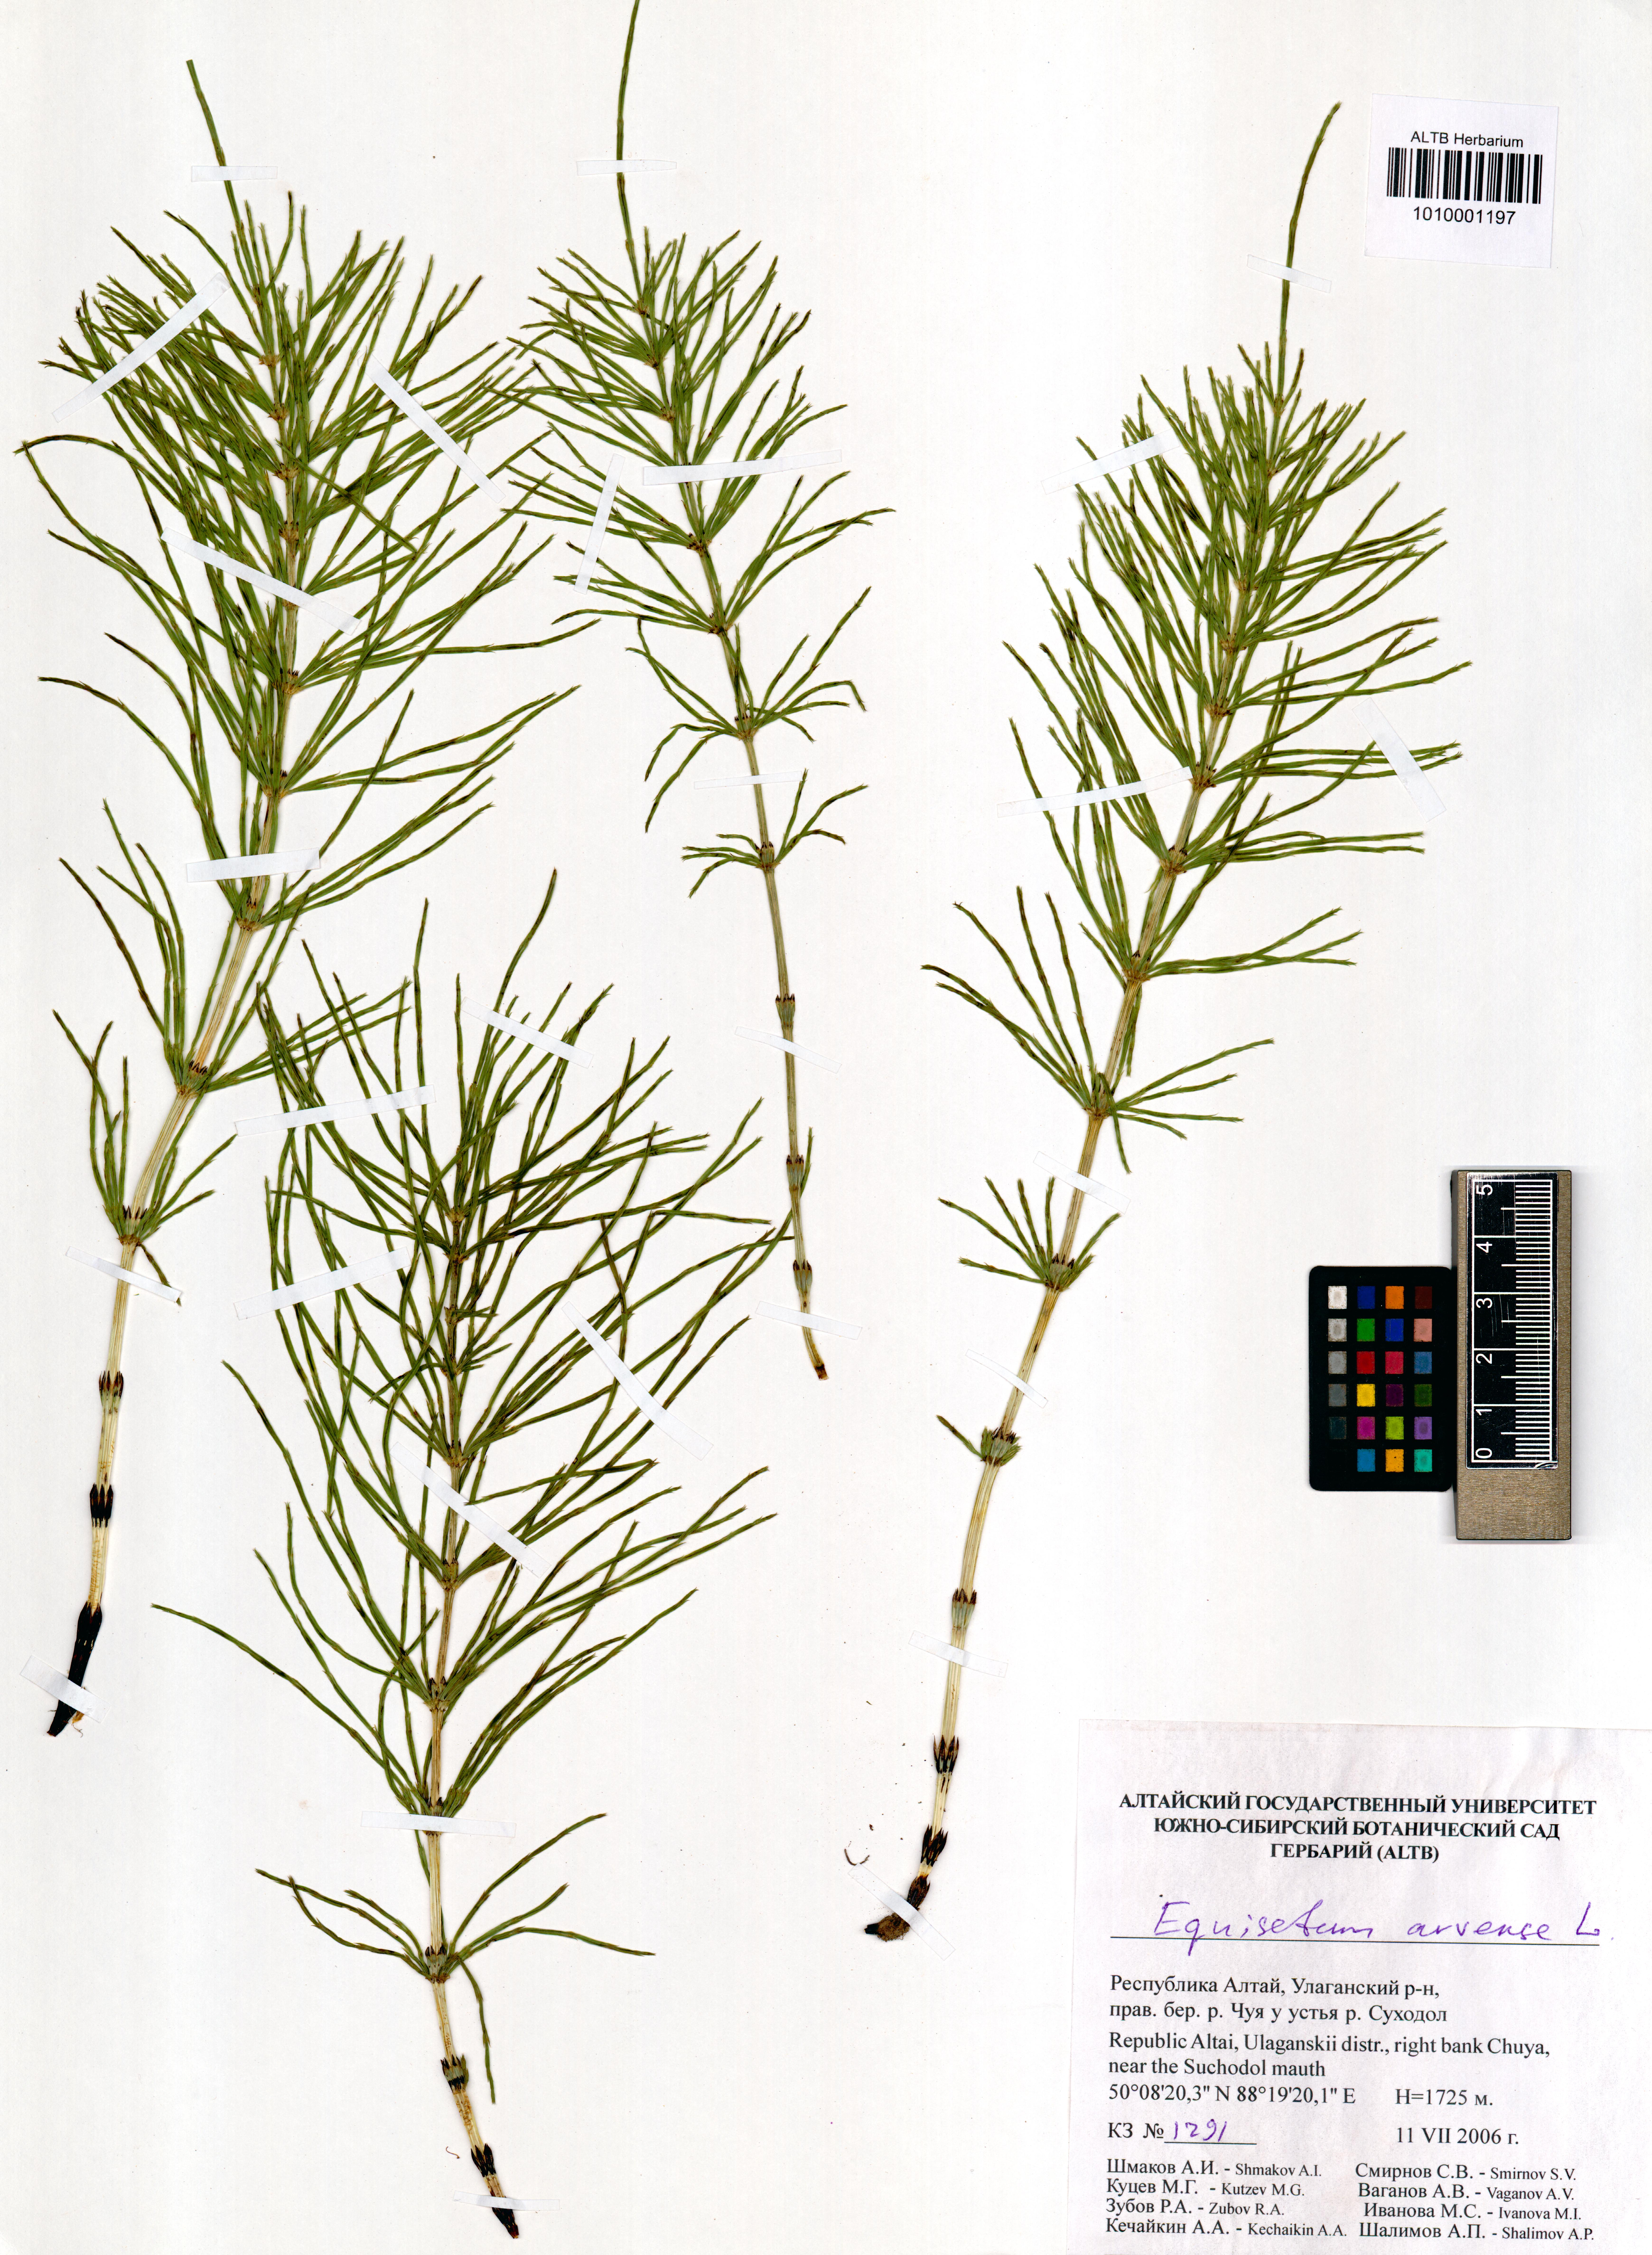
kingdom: Plantae
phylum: Tracheophyta
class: Polypodiopsida
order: Equisetales
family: Equisetaceae
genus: Equisetum
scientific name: Equisetum arvense
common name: Field horsetail
